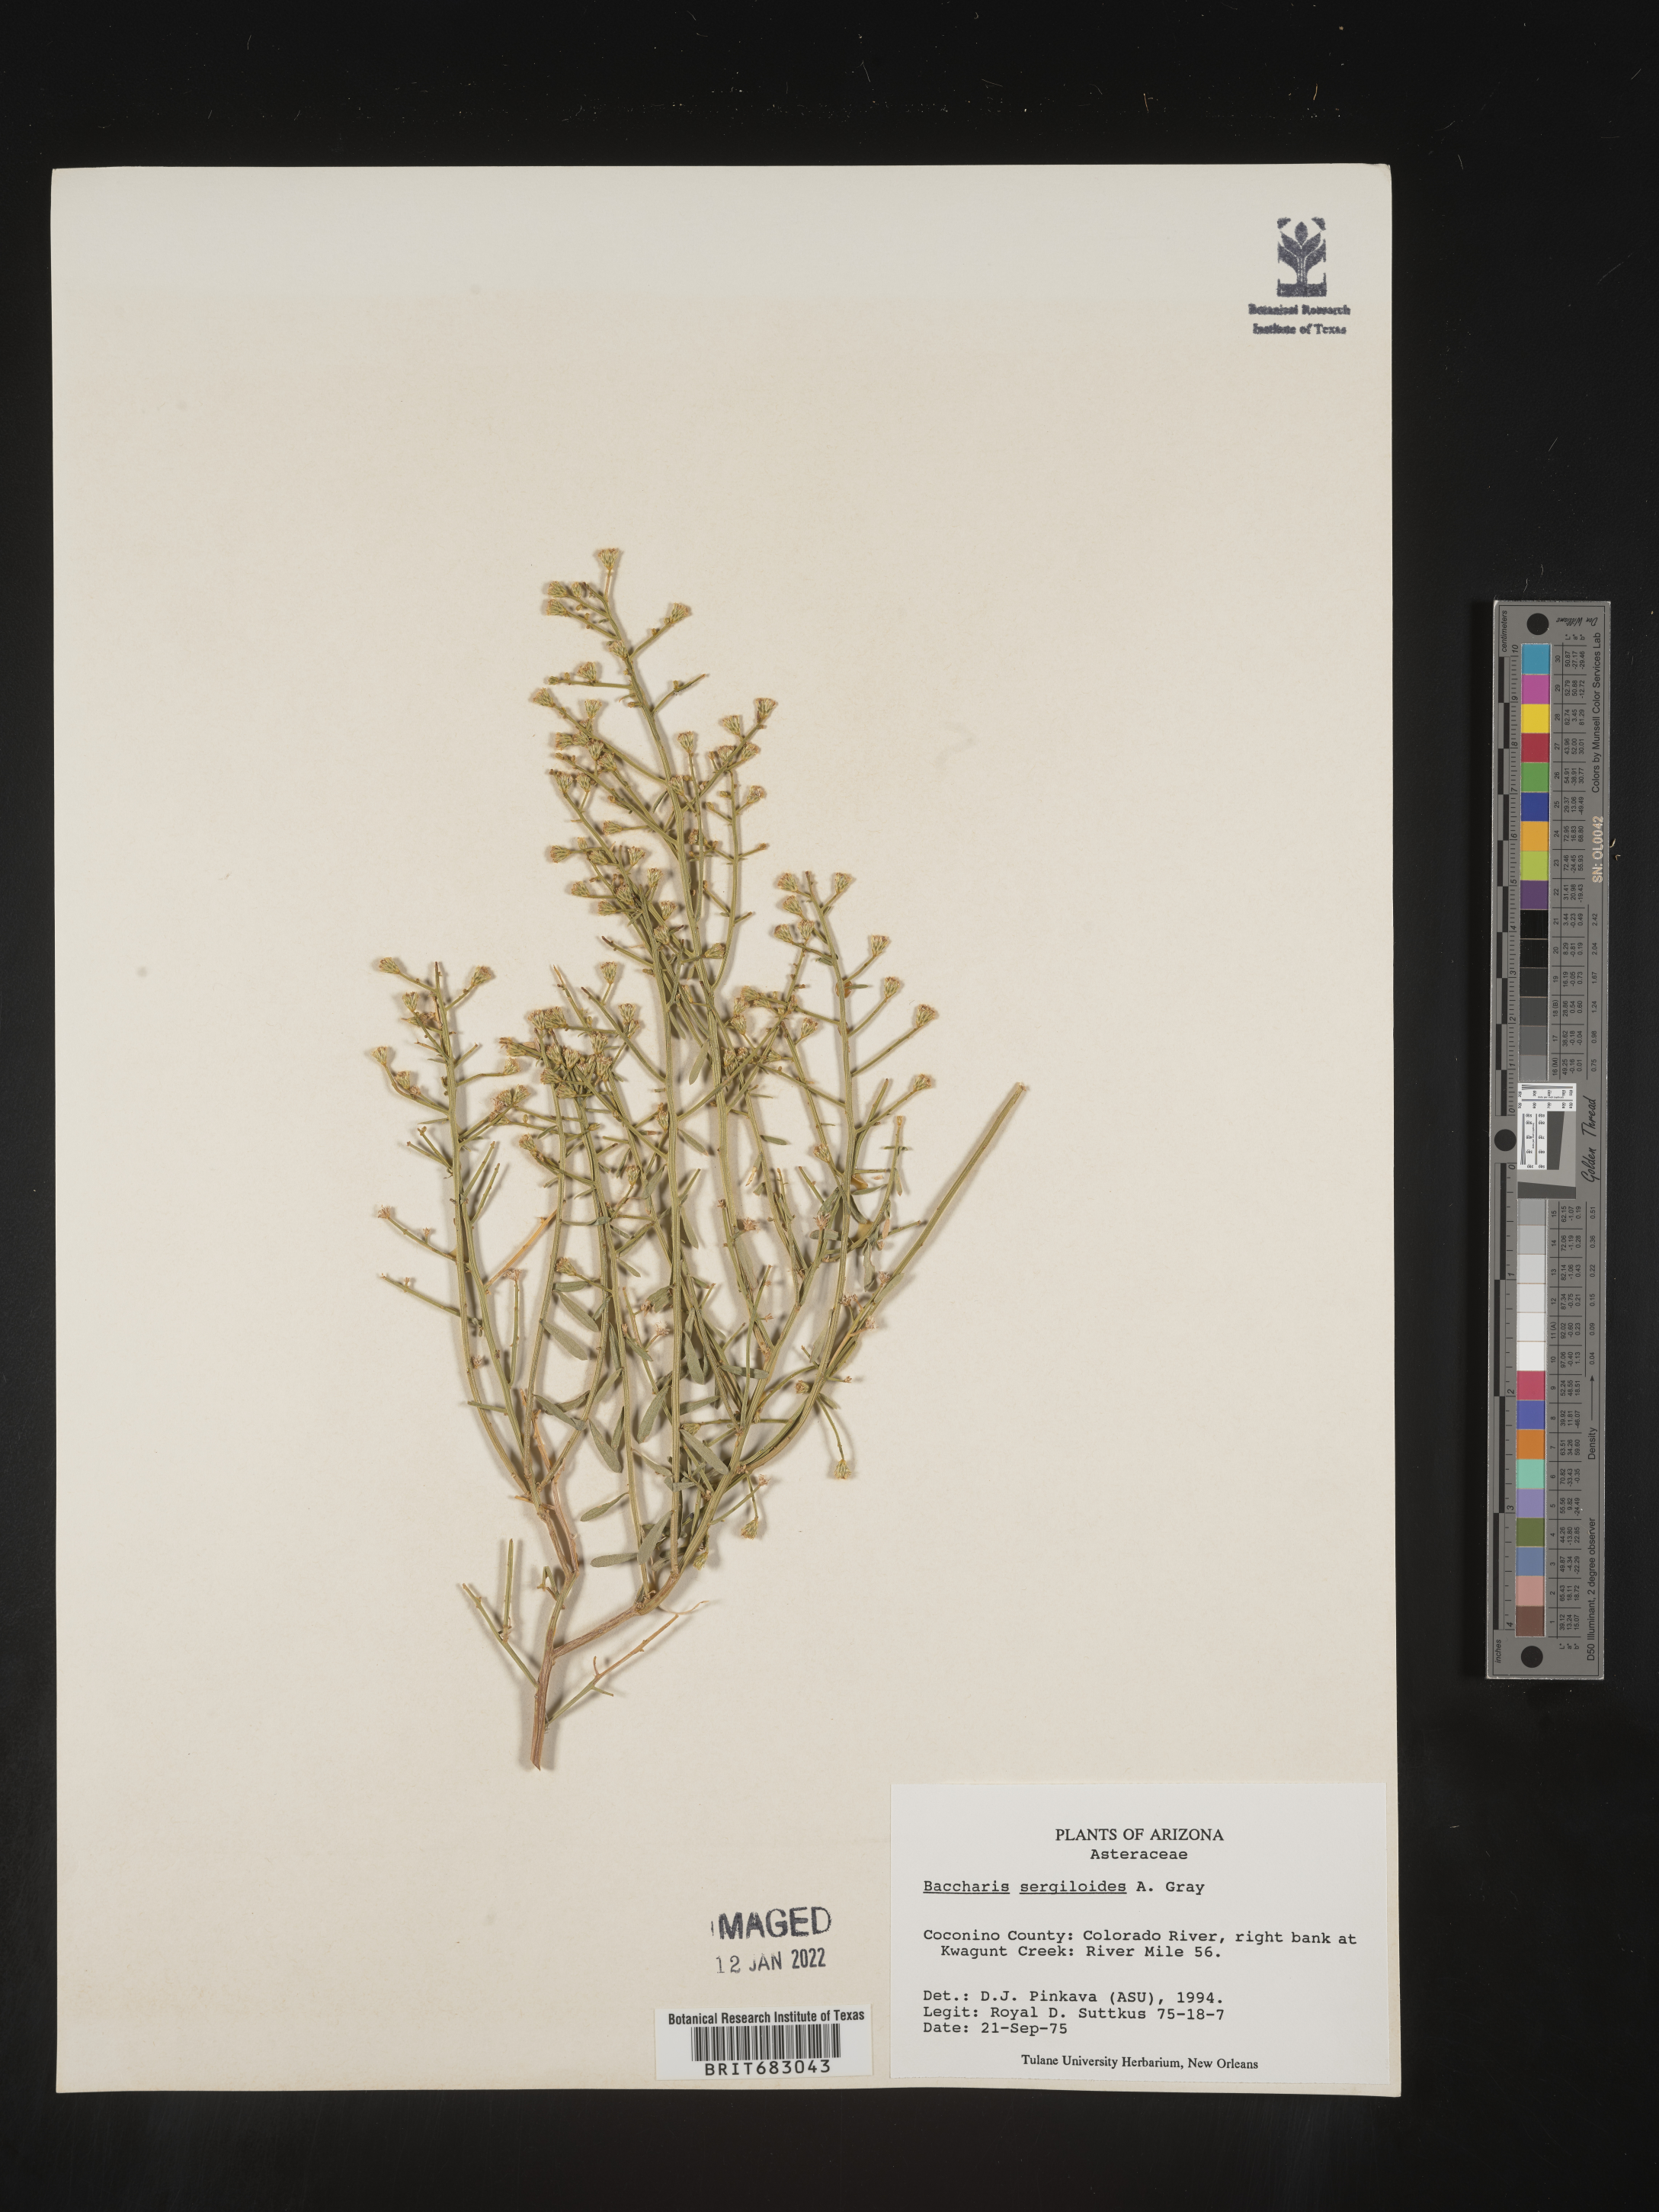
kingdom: Plantae
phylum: Tracheophyta
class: Magnoliopsida
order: Asterales
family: Asteraceae
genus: Baccharis
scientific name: Baccharis sergiloides
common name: Desert baccharis
